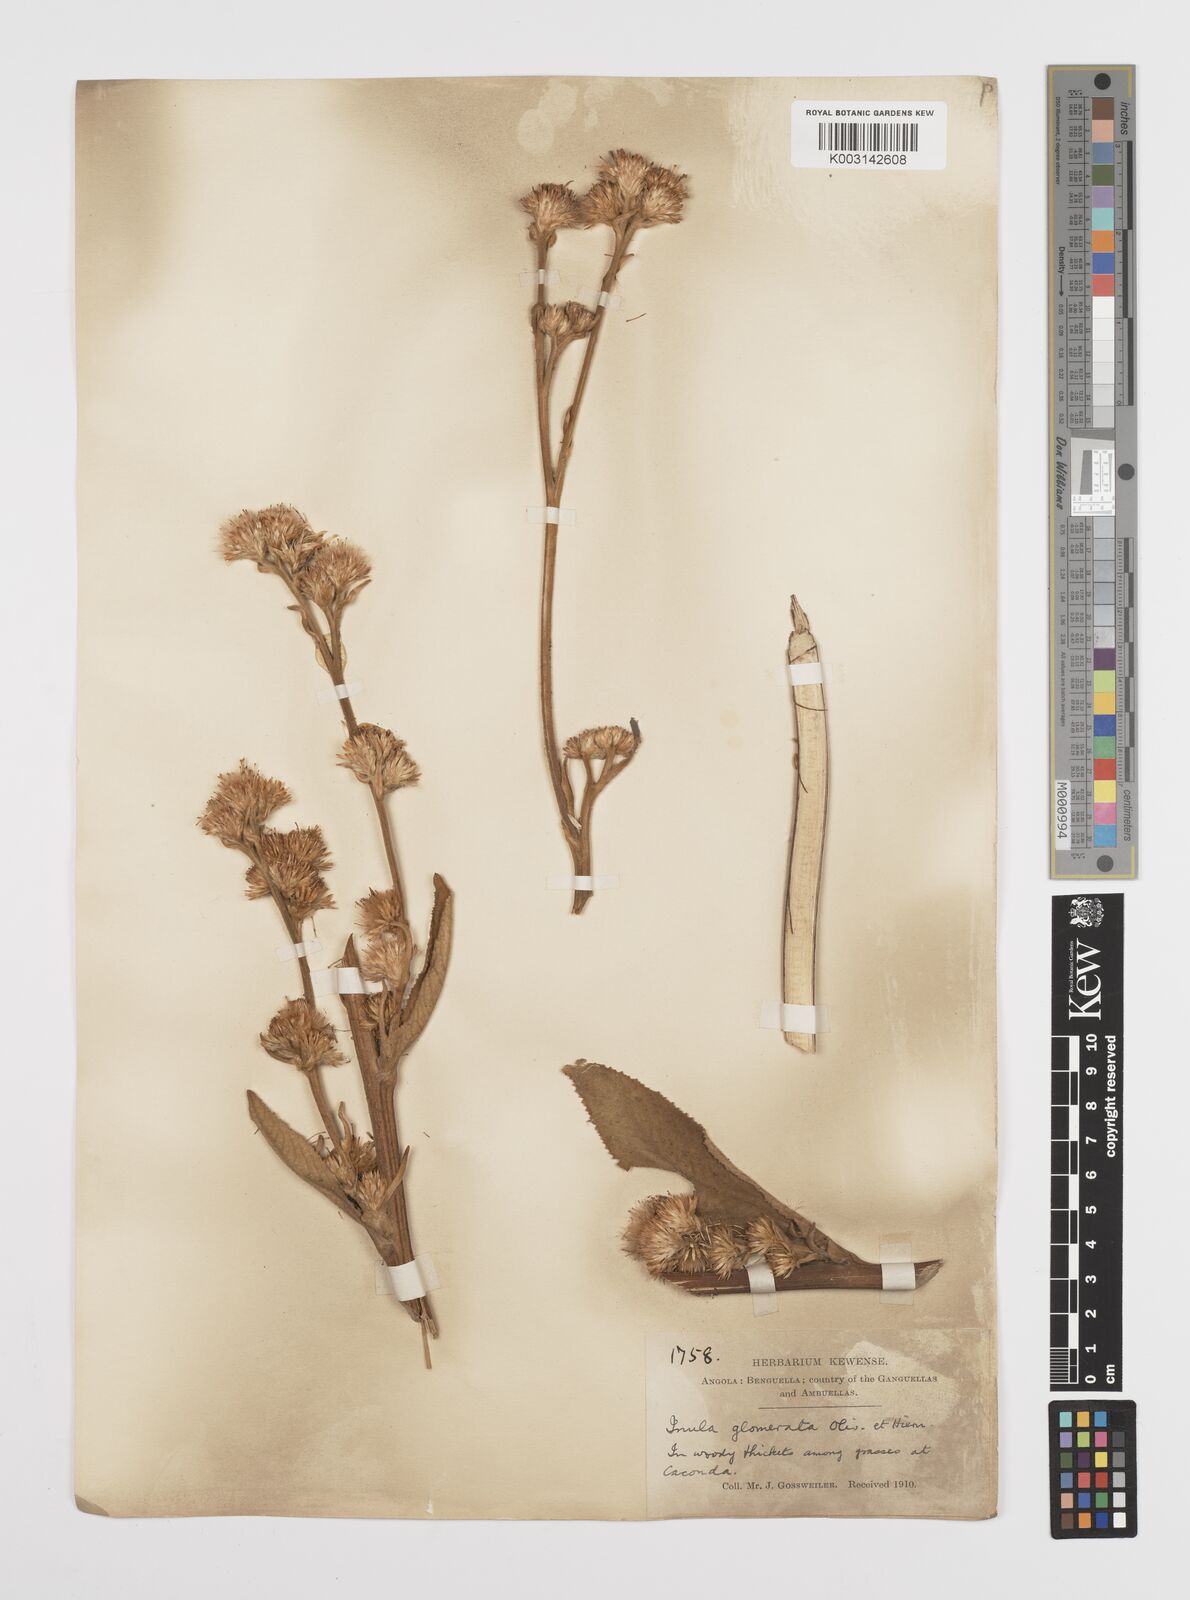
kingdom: Plantae
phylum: Tracheophyta
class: Magnoliopsida
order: Asterales
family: Asteraceae
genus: Inula
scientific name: Inula glomerata
